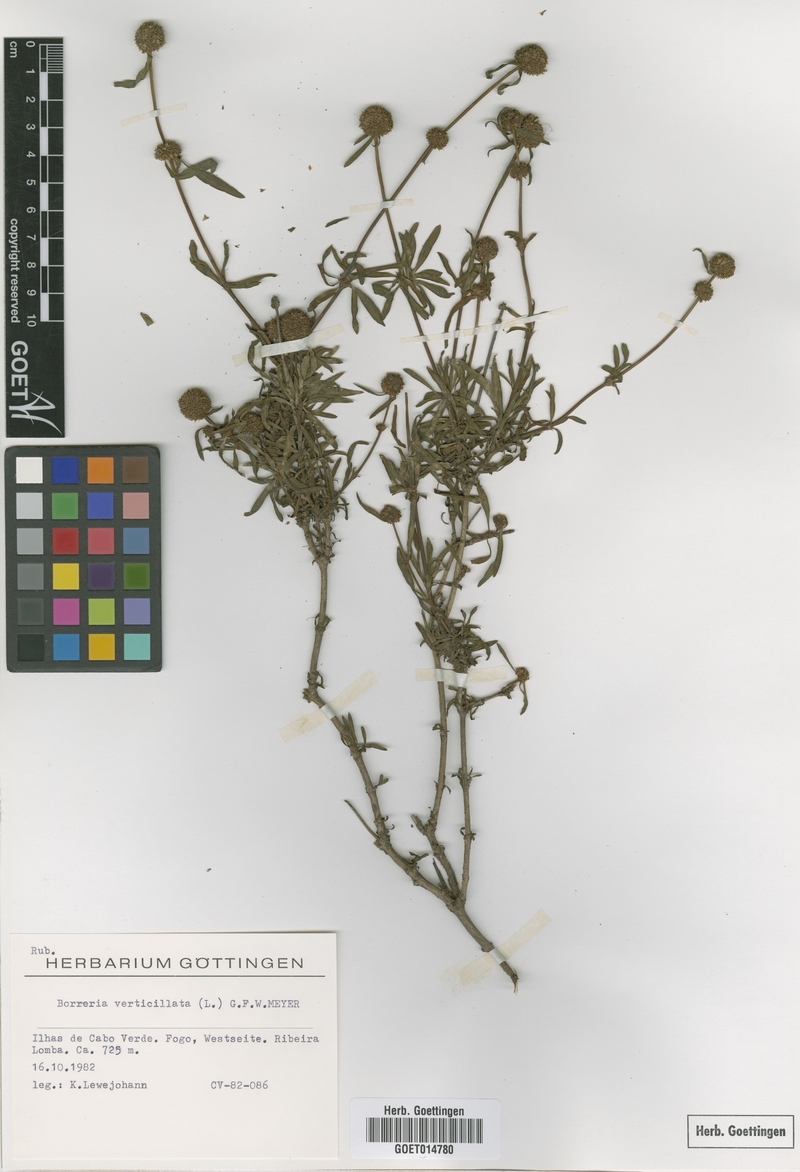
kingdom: Plantae
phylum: Tracheophyta
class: Magnoliopsida
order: Gentianales
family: Rubiaceae
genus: Spermacoce
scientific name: Spermacoce verticillata
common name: Shrubby false buttonweed
